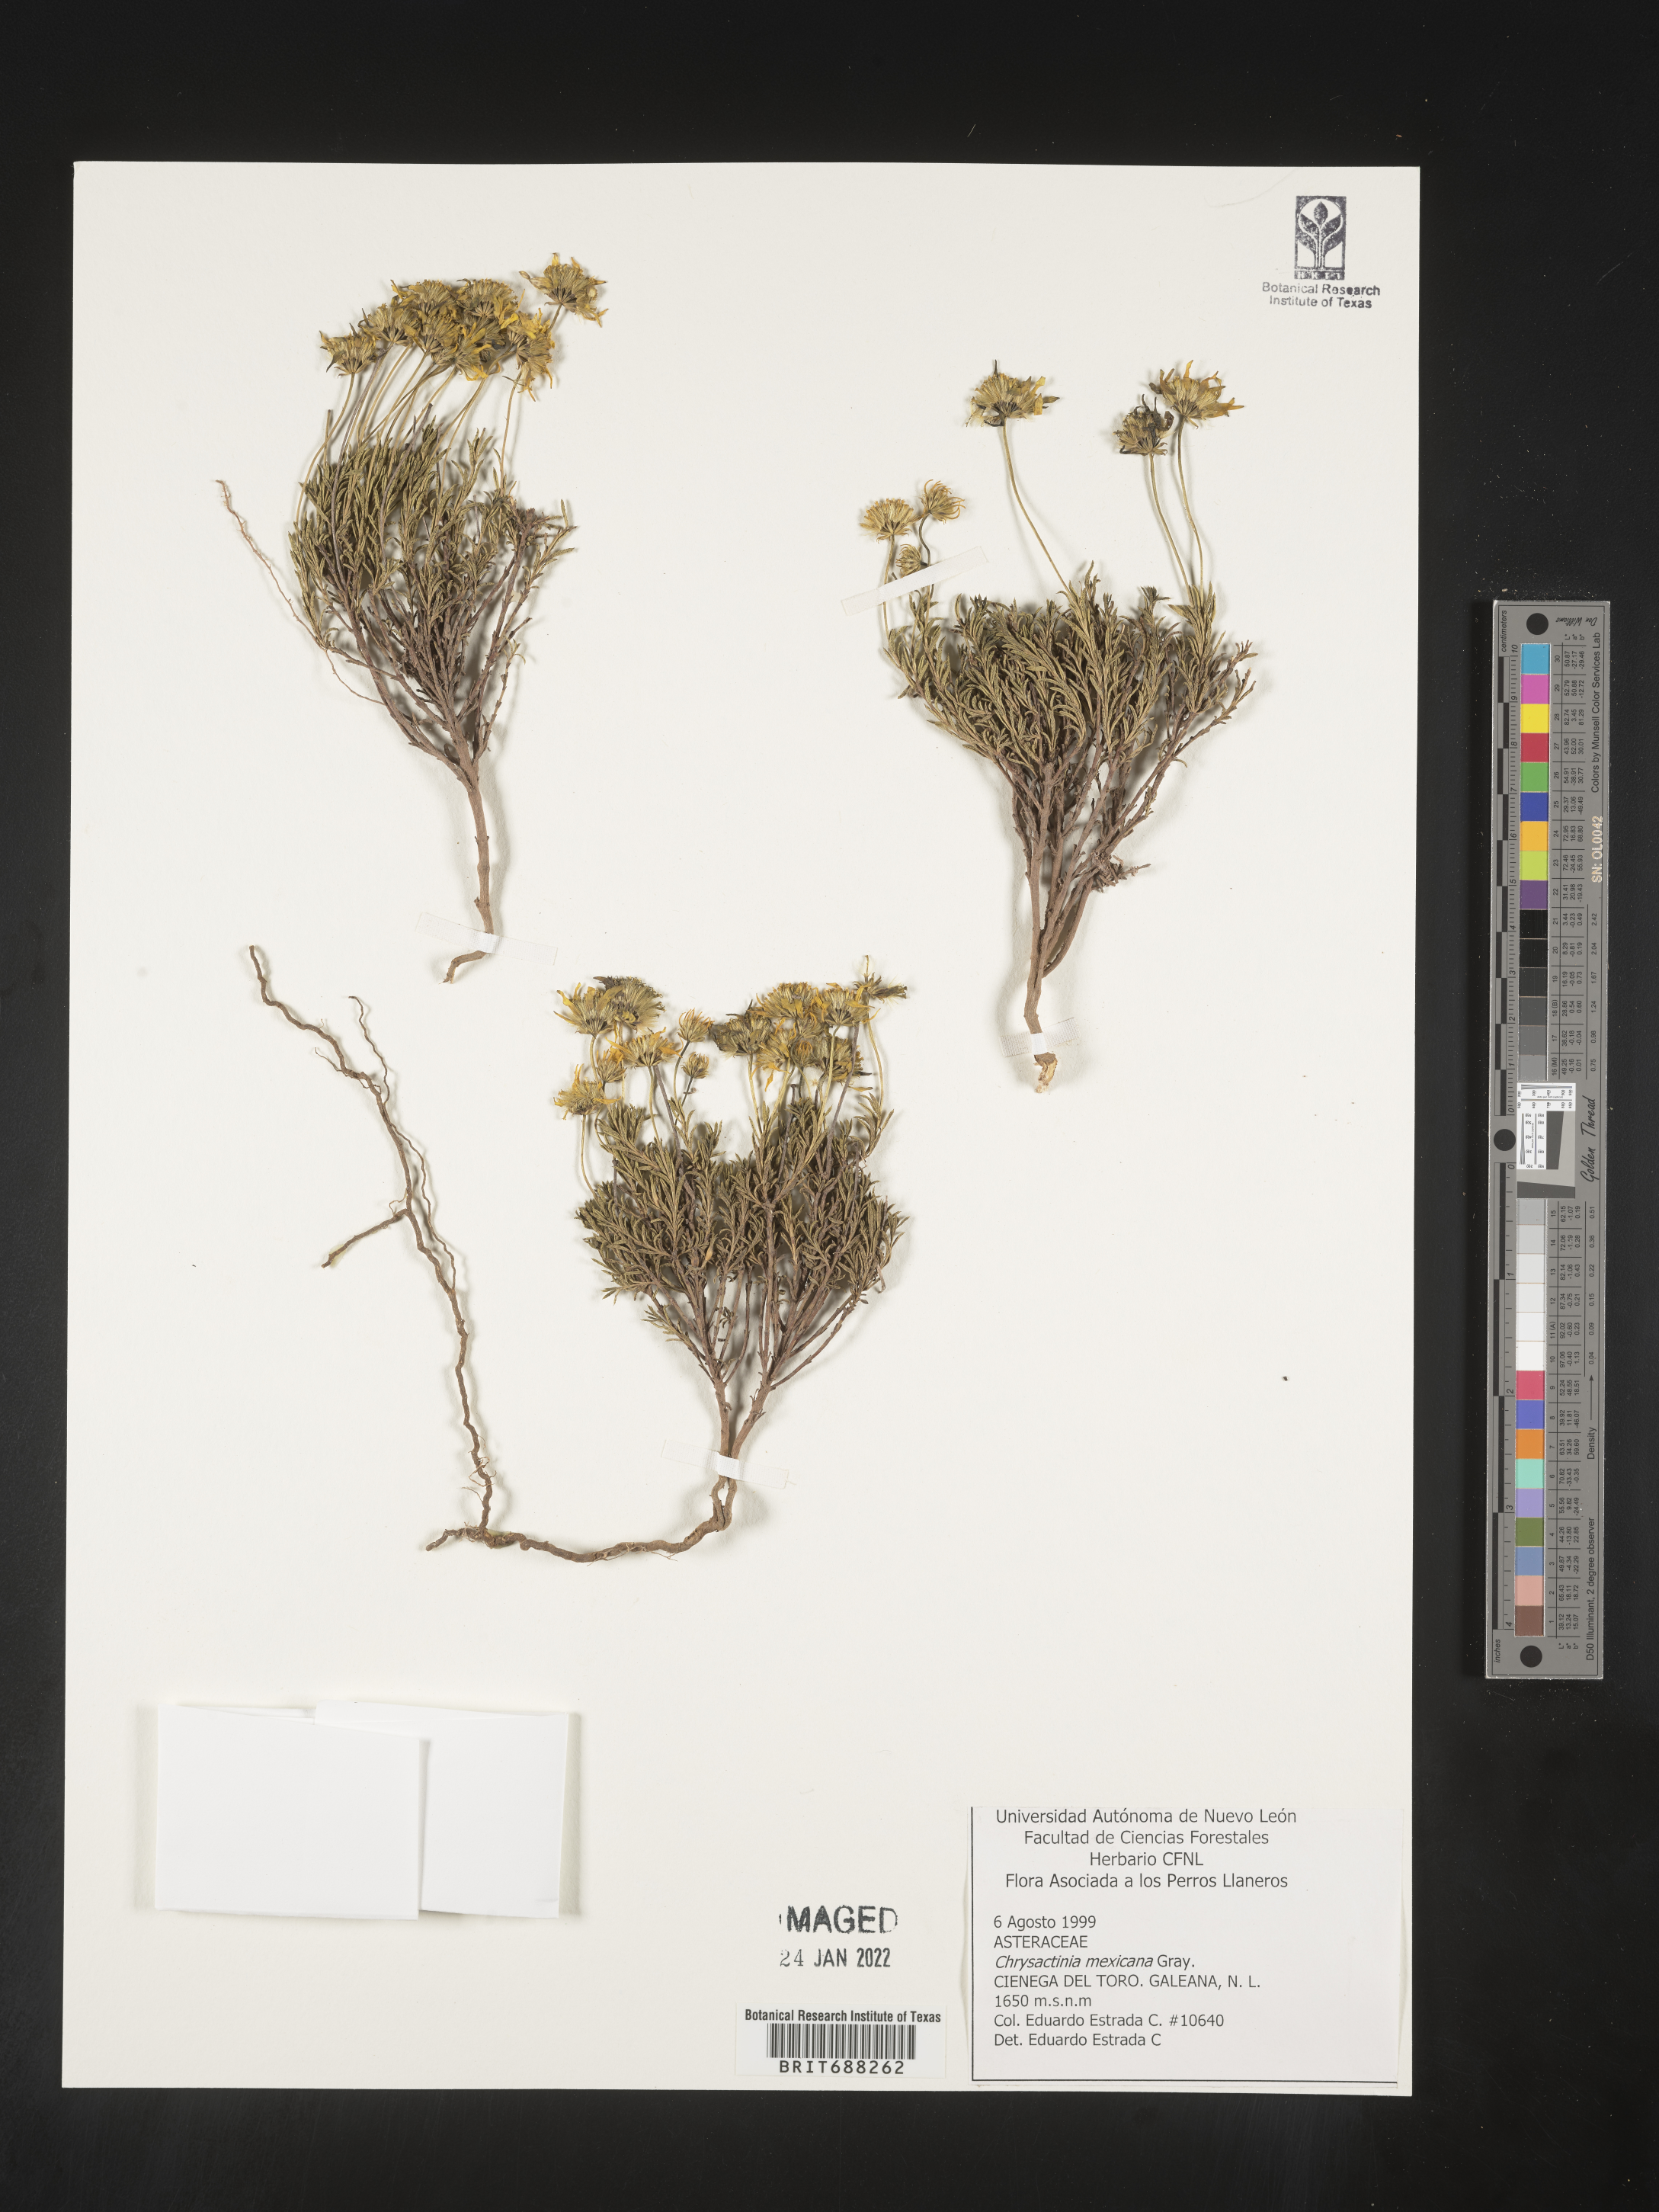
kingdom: Plantae
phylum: Tracheophyta
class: Magnoliopsida
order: Asterales
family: Asteraceae
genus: Chrysactinia
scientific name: Chrysactinia
